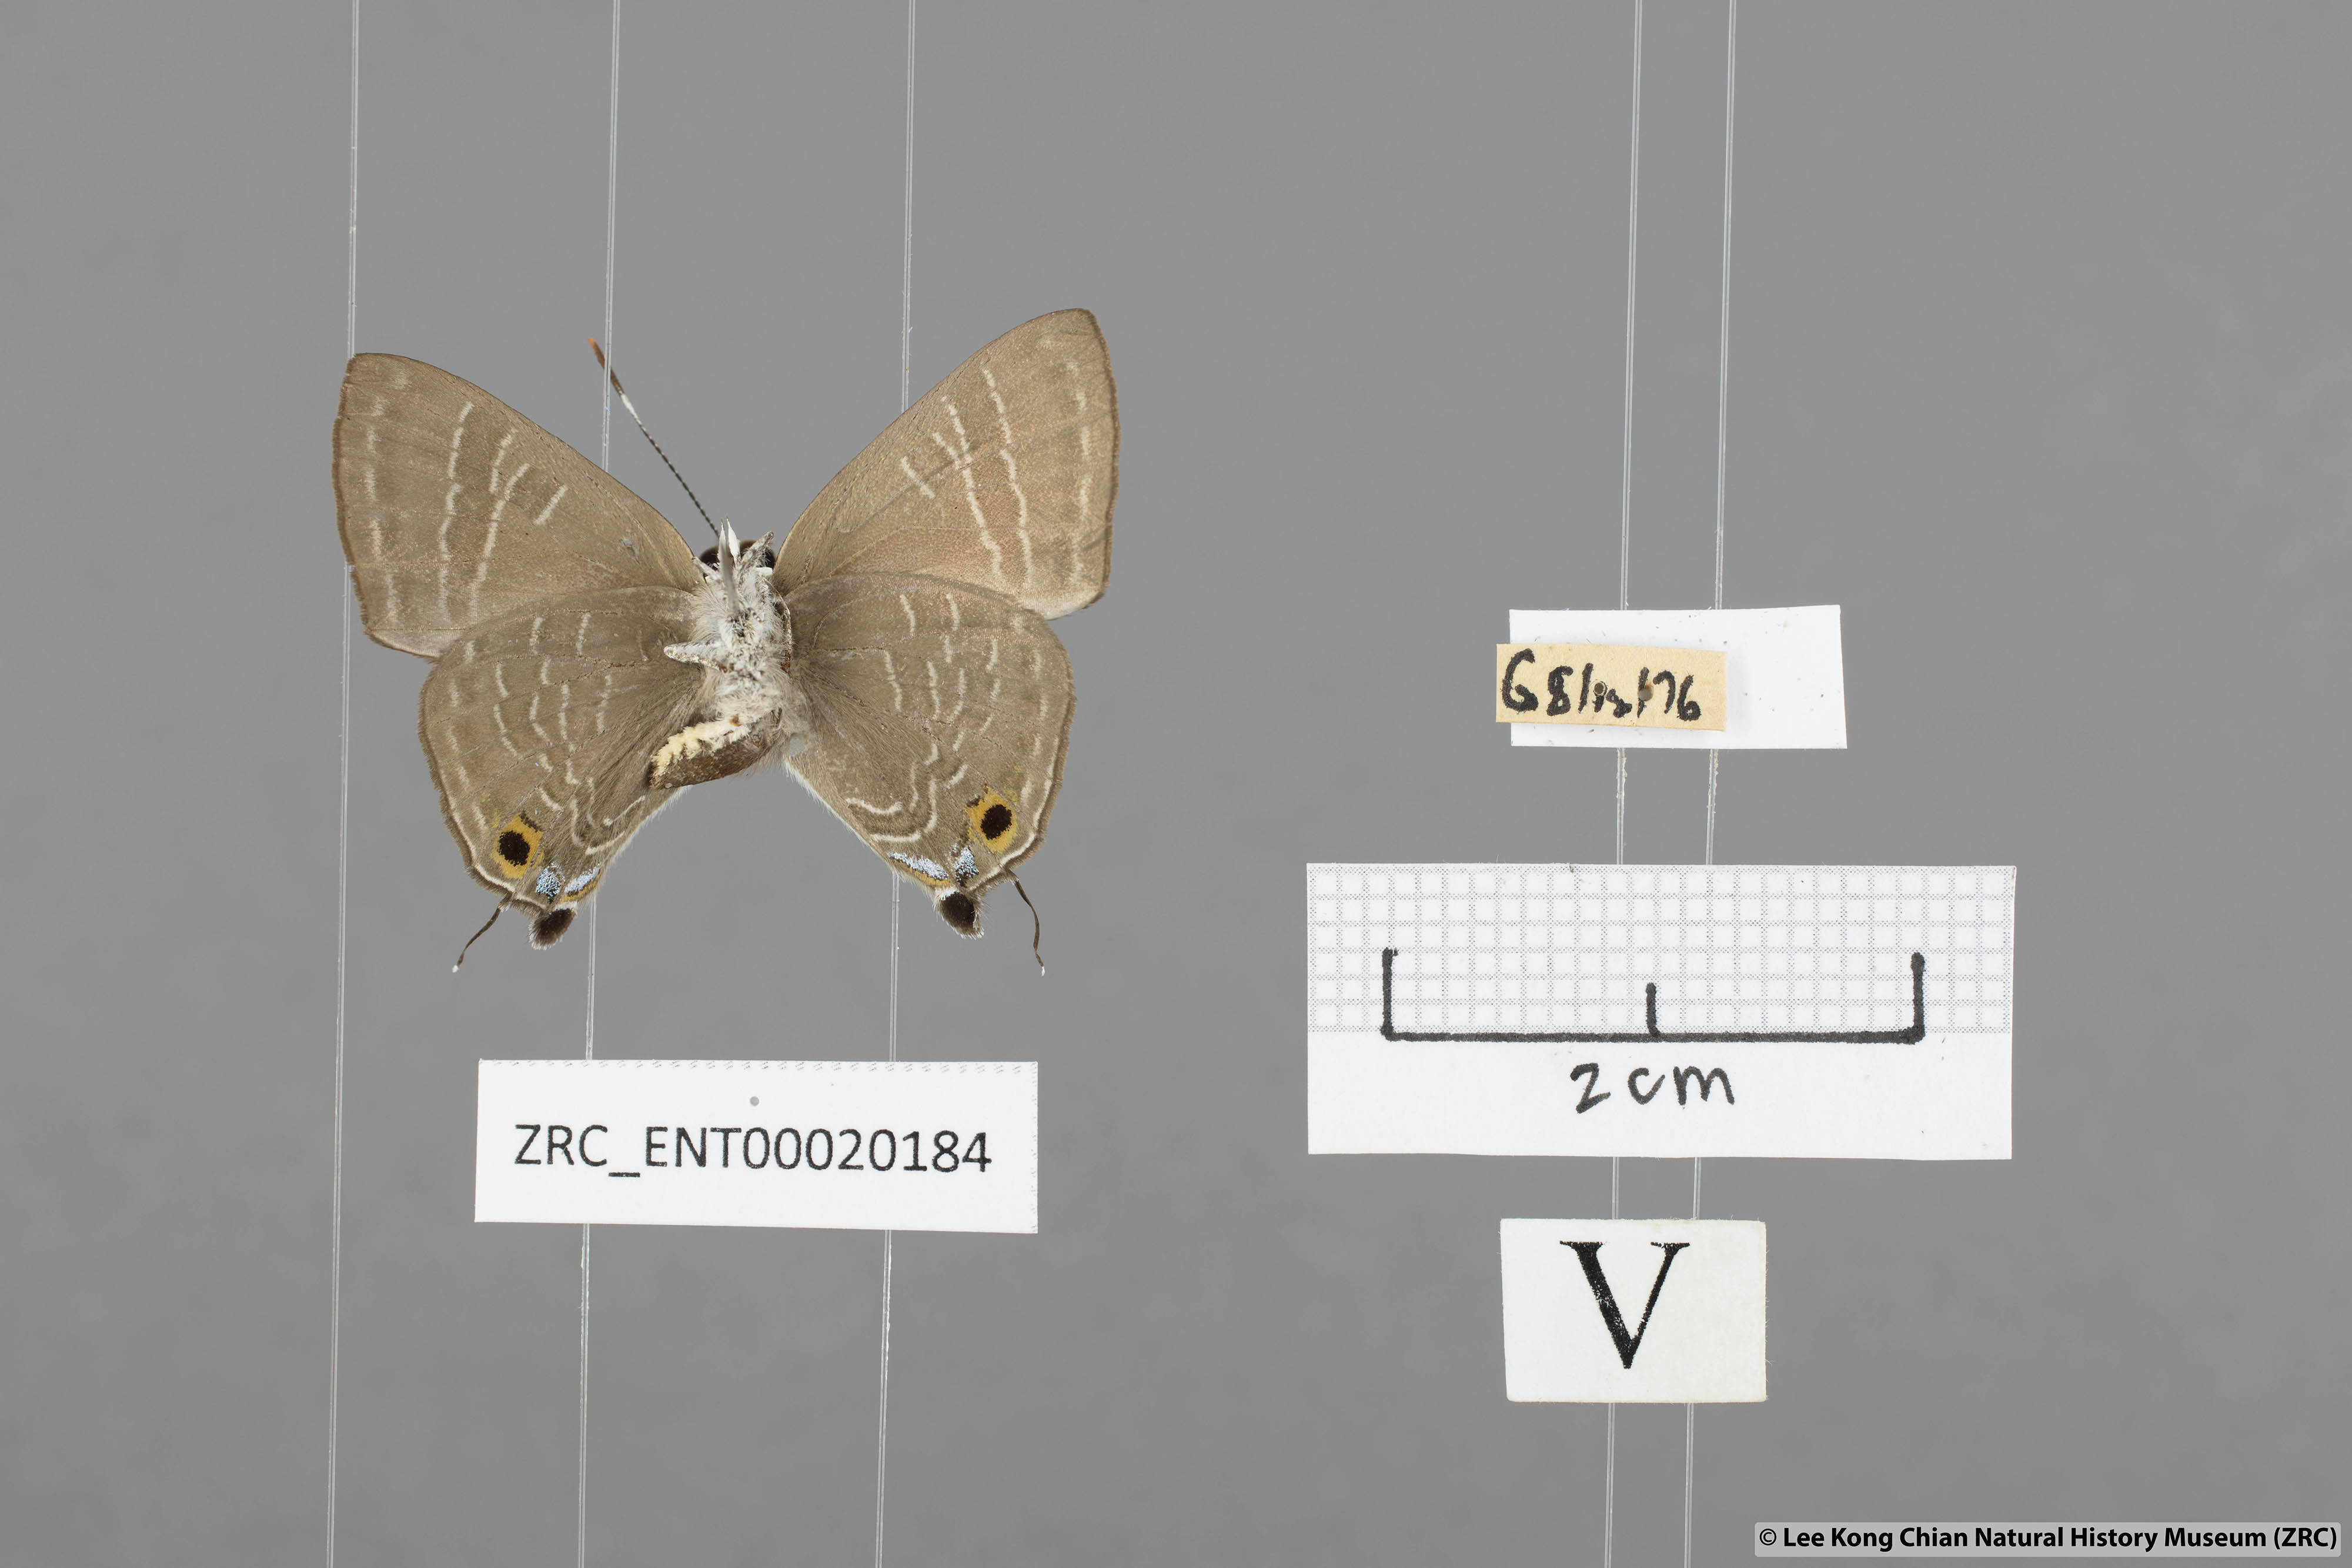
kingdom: Animalia
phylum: Arthropoda
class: Insecta
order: Lepidoptera
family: Lycaenidae
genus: Deudorix
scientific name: Deudorix epijarbas
